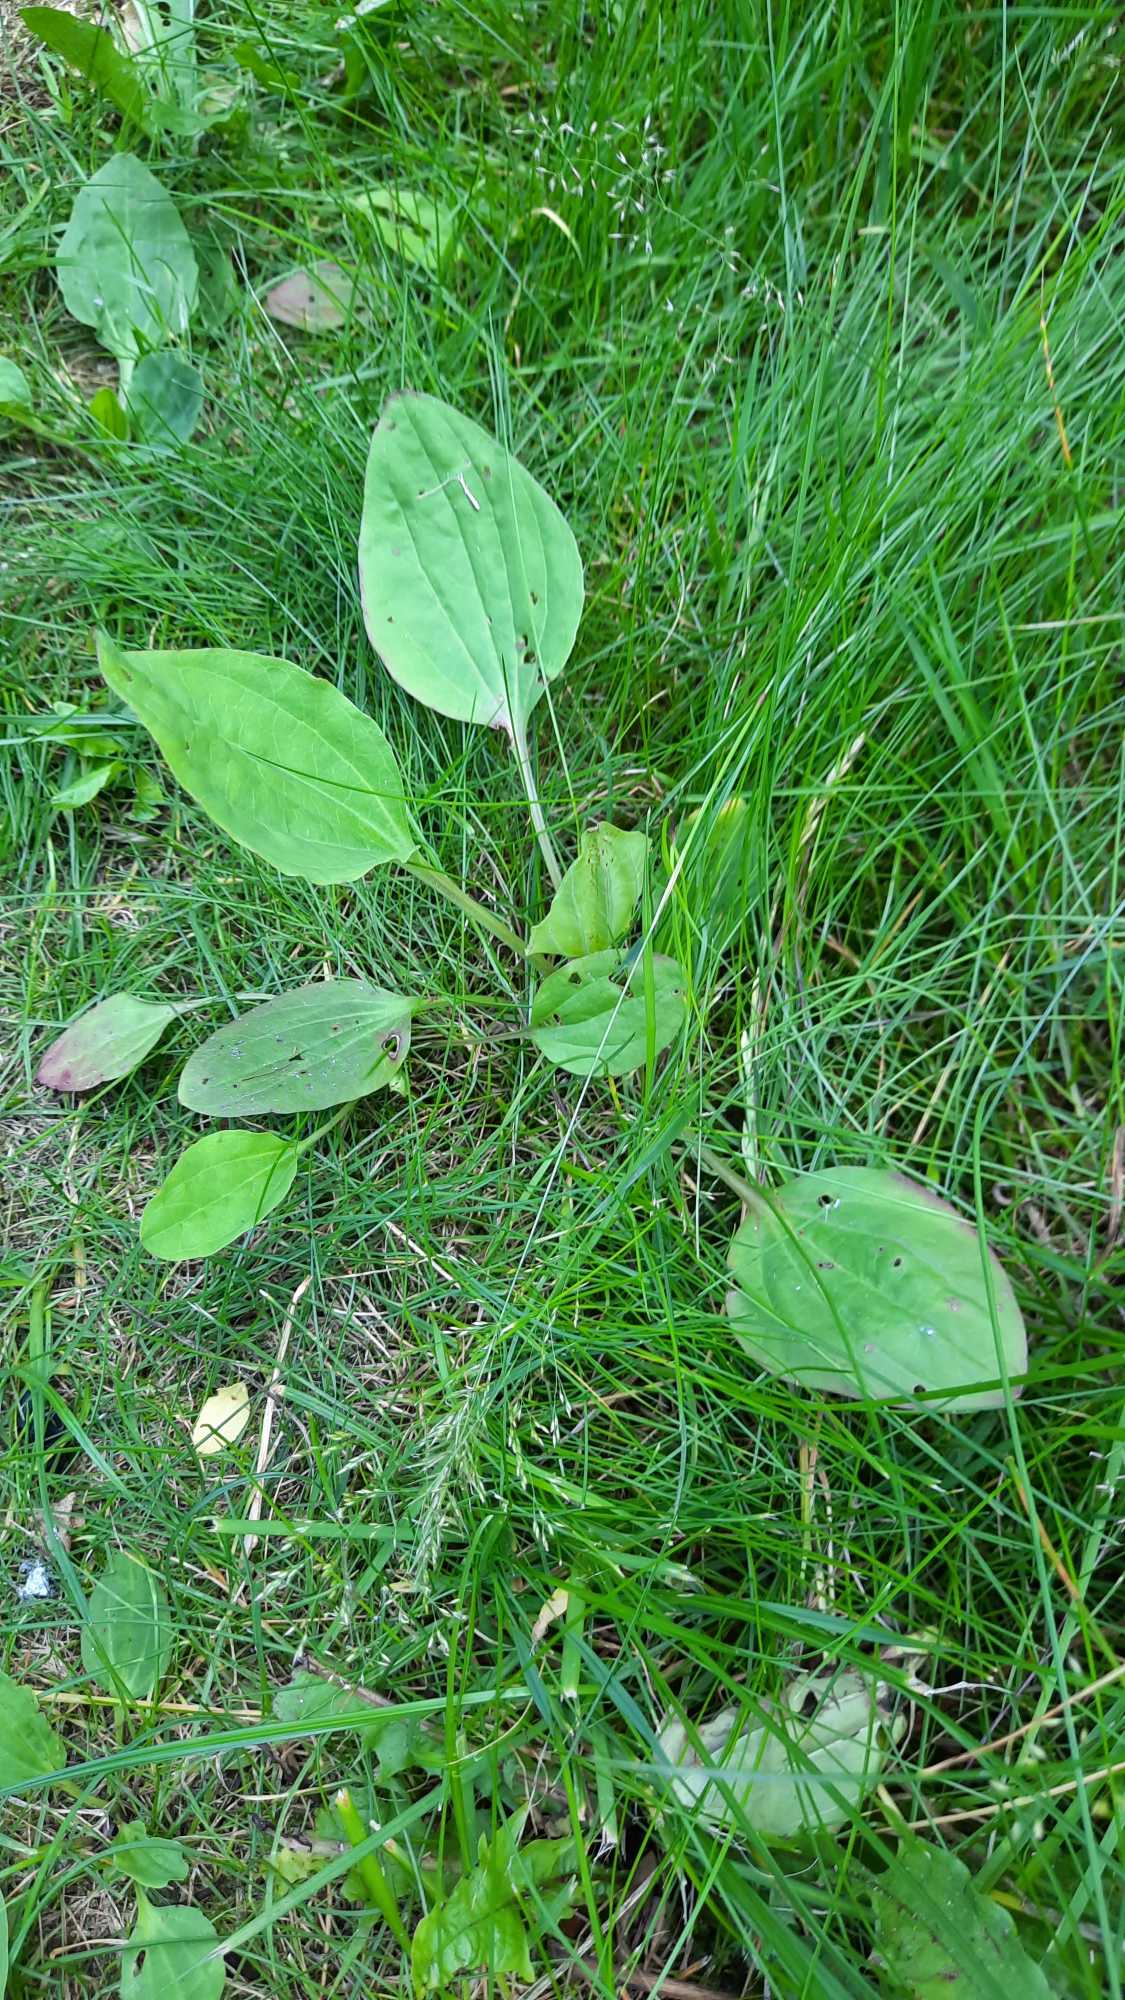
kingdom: Plantae
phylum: Tracheophyta
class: Magnoliopsida
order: Lamiales
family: Plantaginaceae
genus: Plantago
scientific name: Plantago major
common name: Glat vejbred
